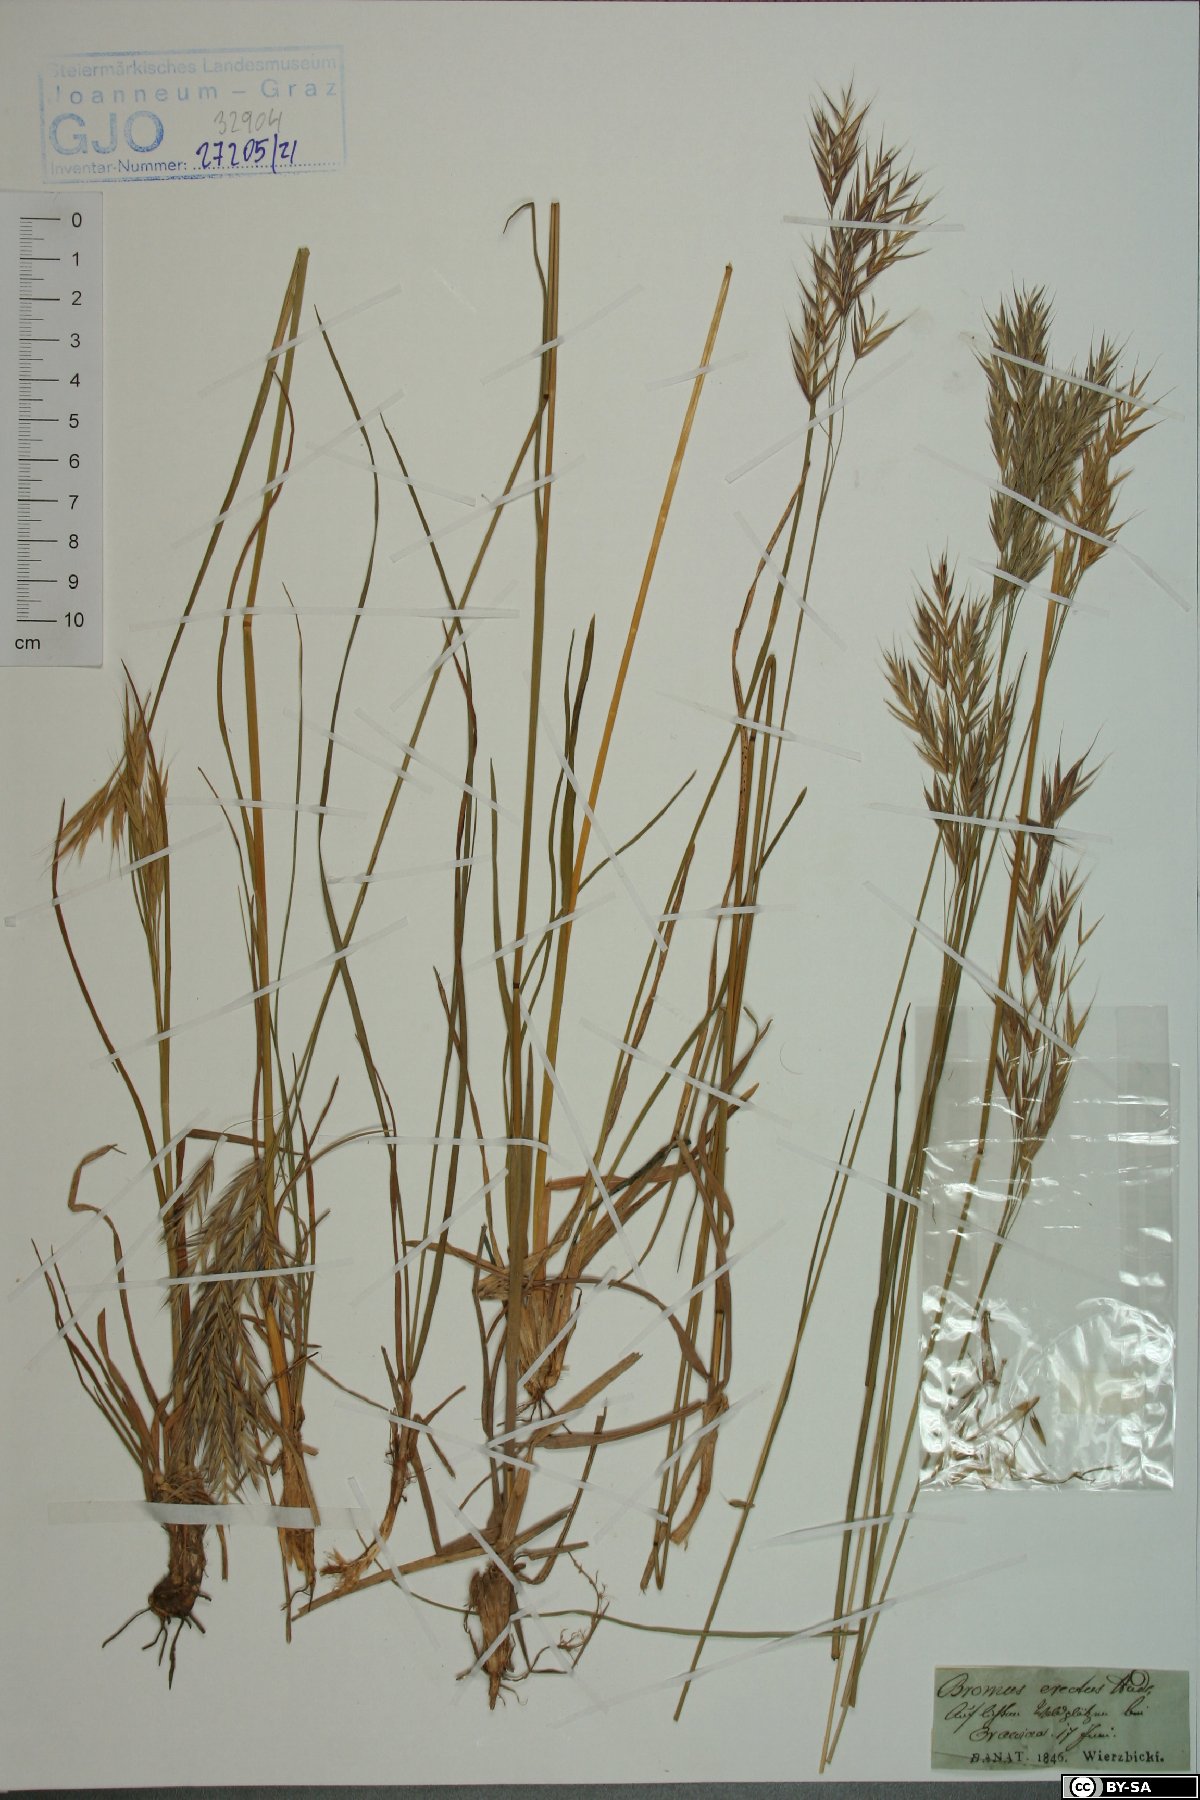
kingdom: Plantae
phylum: Tracheophyta
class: Liliopsida
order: Poales
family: Poaceae
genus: Bromus
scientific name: Bromus erectus
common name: Erect brome
